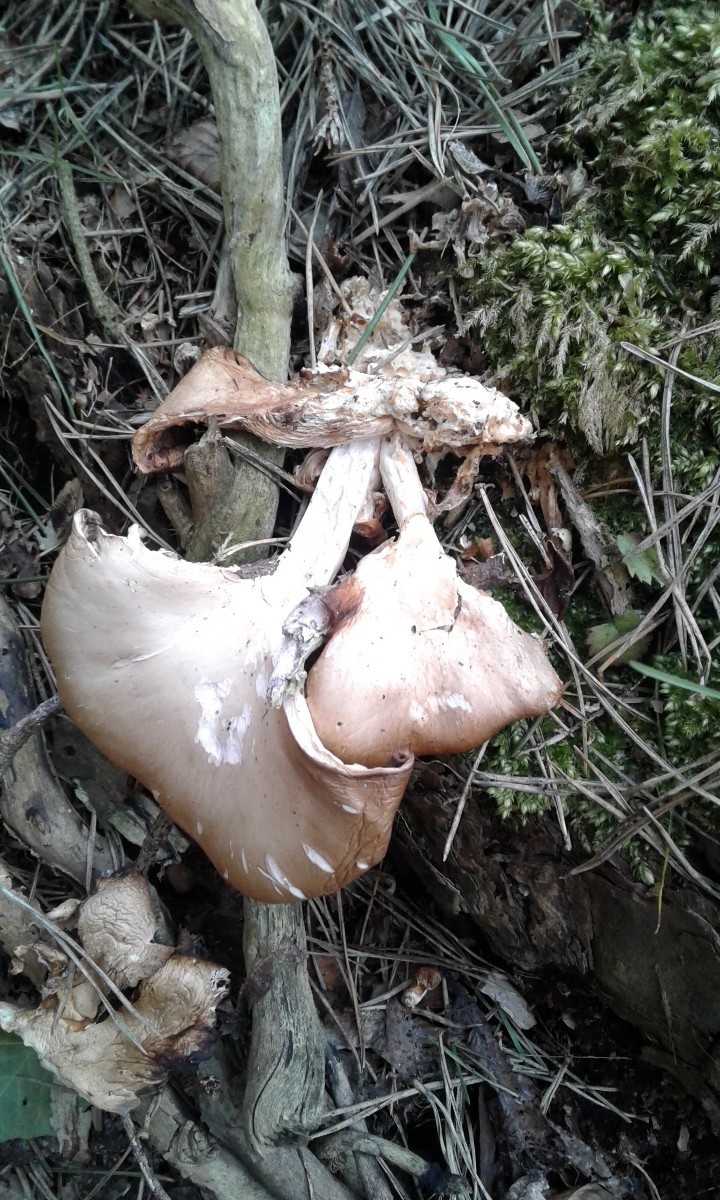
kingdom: Fungi
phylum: Basidiomycota
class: Agaricomycetes
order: Agaricales
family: Pleurotaceae
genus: Pleurotus
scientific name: Pleurotus ostreatus
